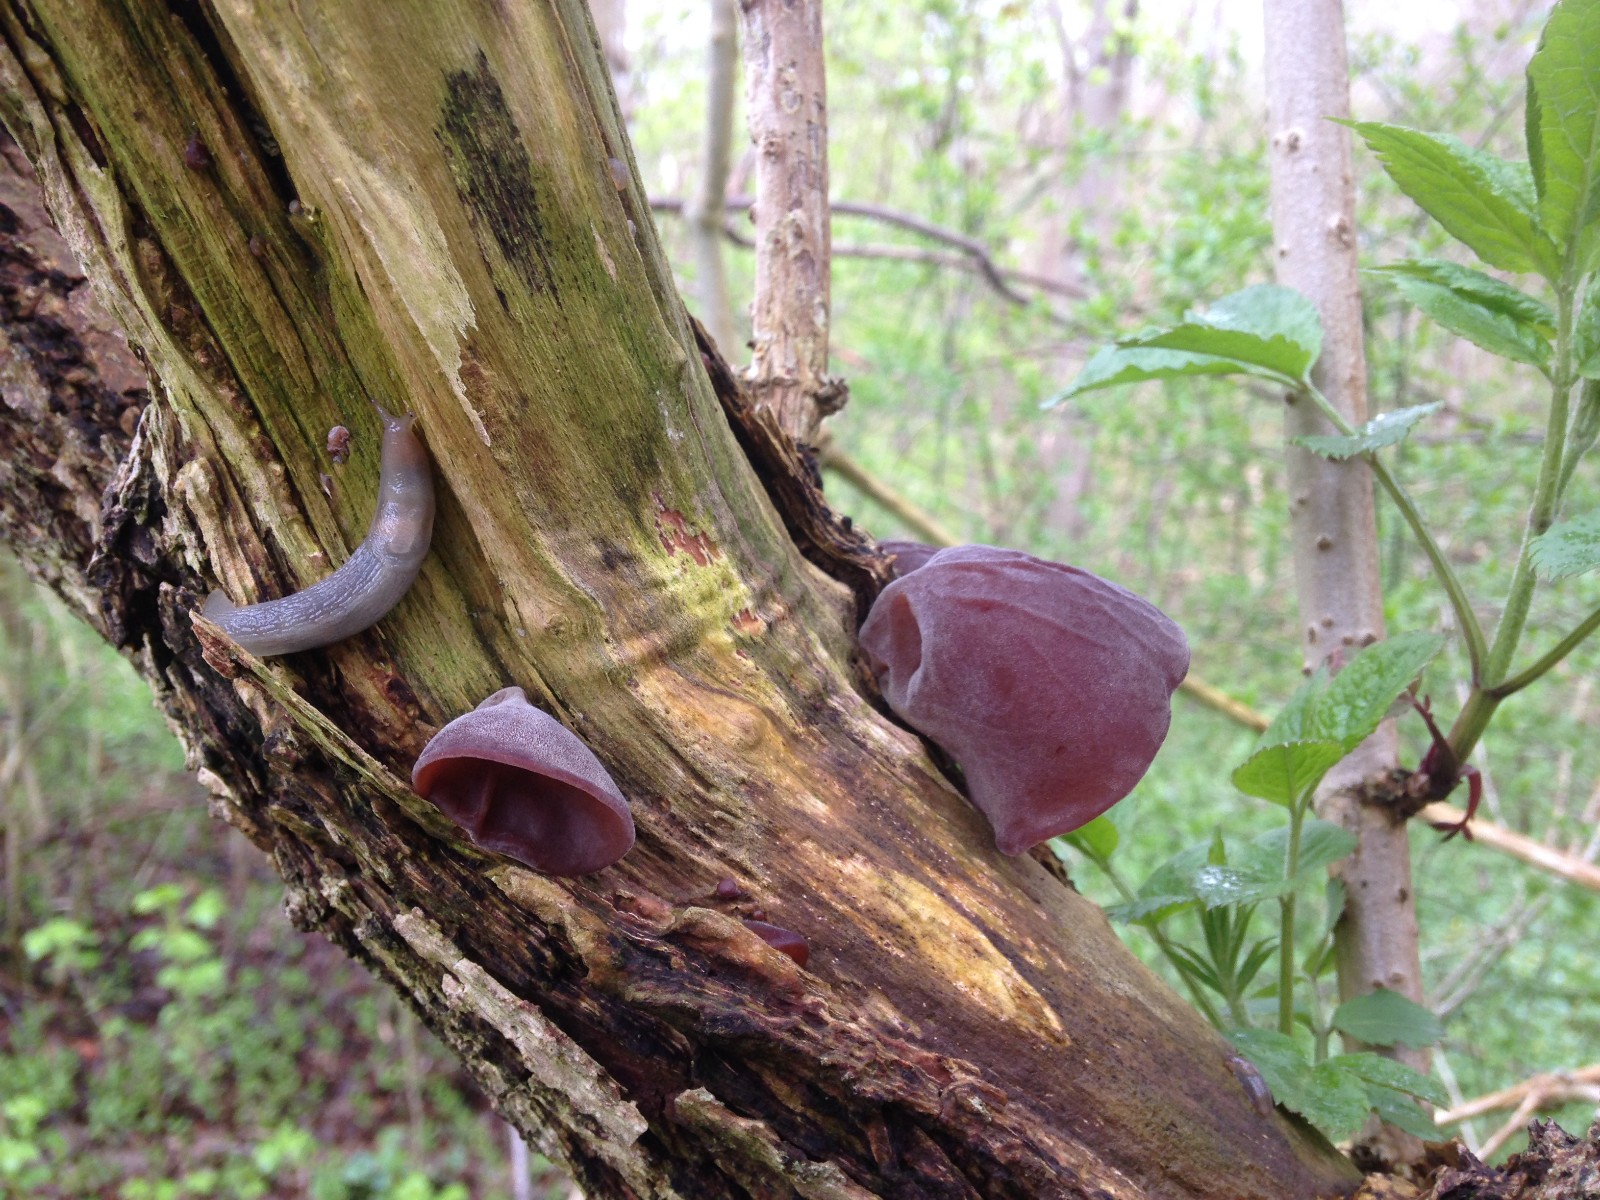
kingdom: Fungi
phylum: Basidiomycota
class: Agaricomycetes
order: Auriculariales
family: Auriculariaceae
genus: Auricularia
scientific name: Auricularia auricula-judae
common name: almindelig judasøre
